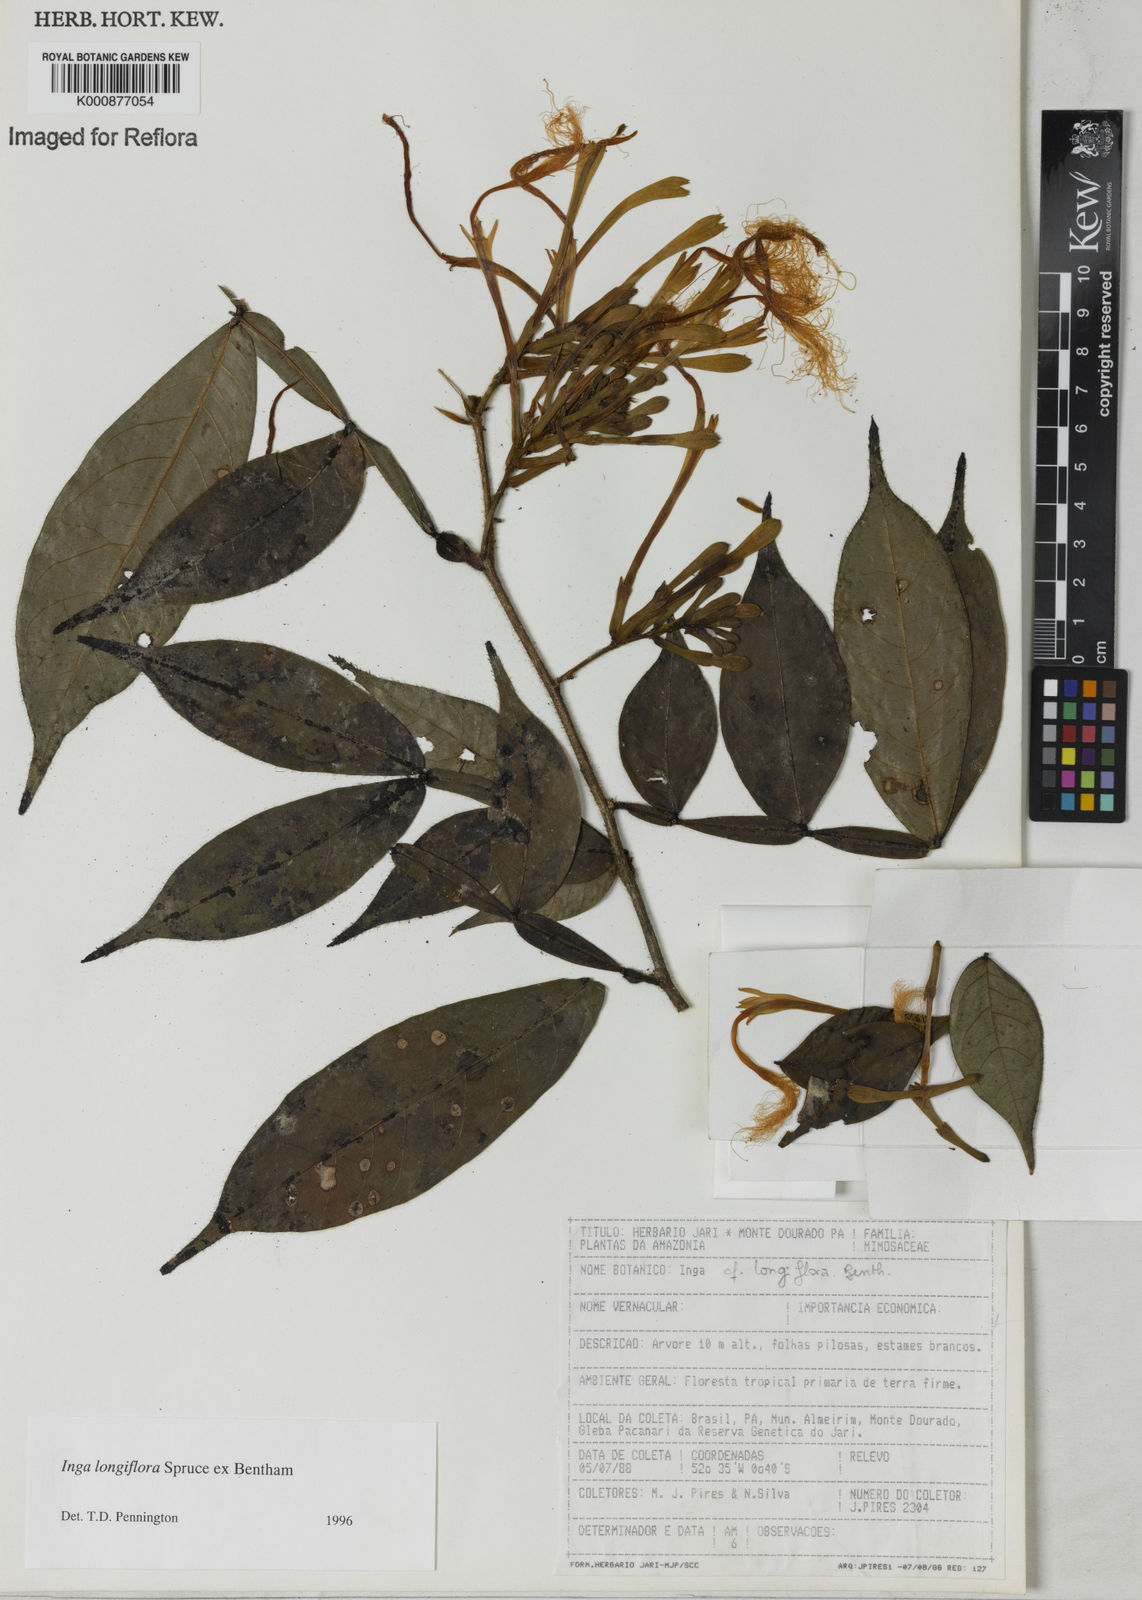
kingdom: Plantae
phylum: Tracheophyta
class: Magnoliopsida
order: Fabales
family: Fabaceae
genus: Inga
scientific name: Inga
